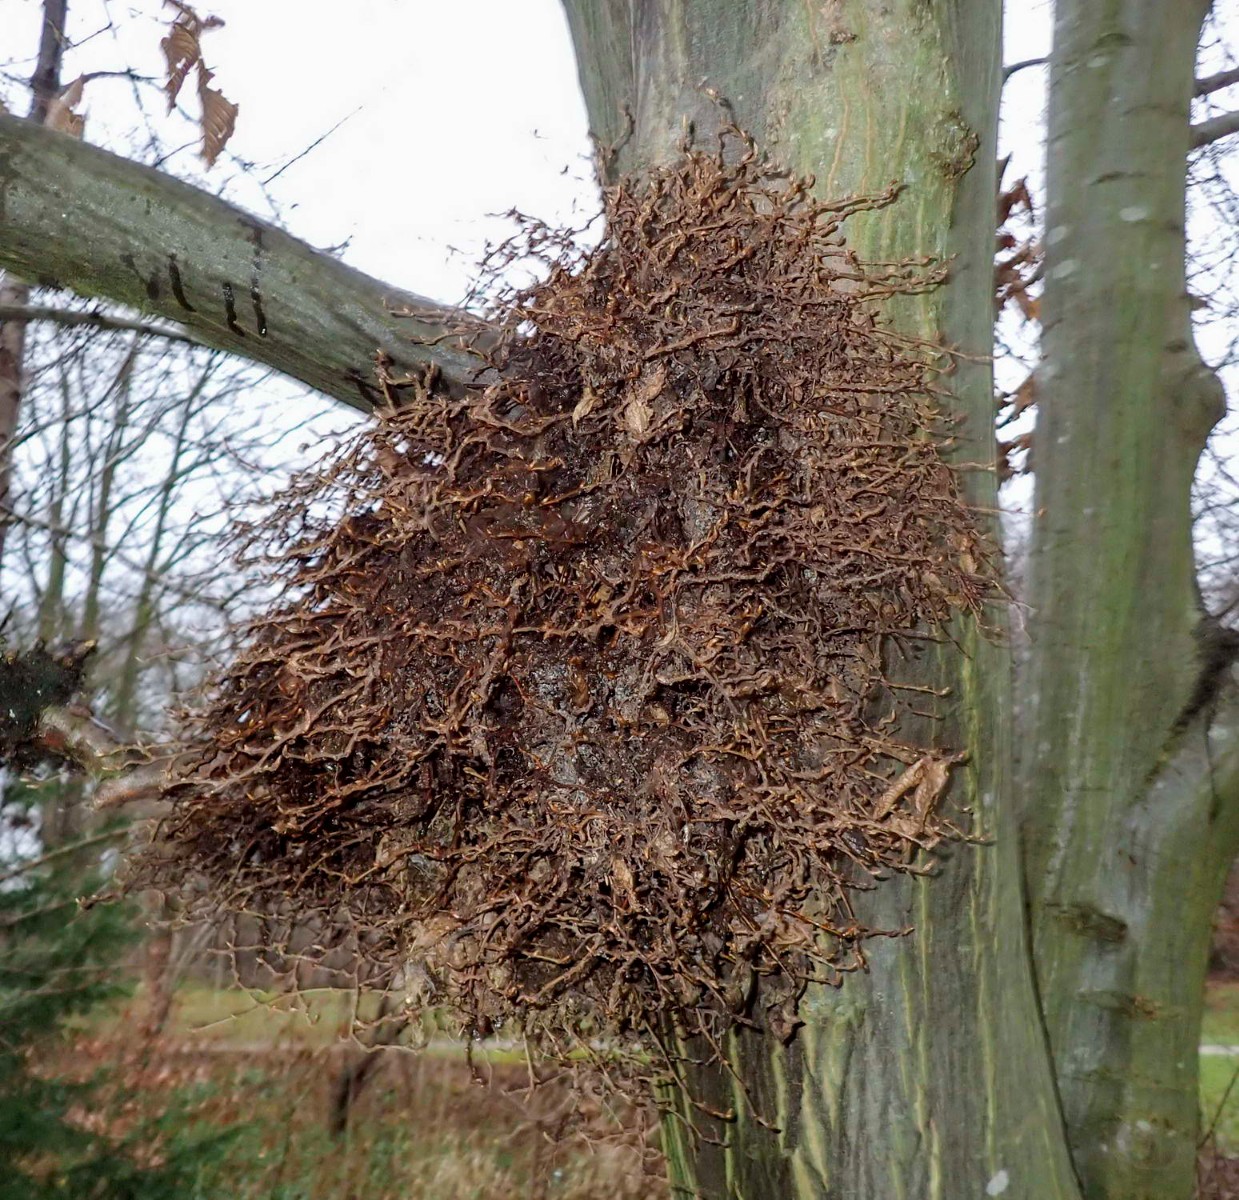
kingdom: Fungi
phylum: Ascomycota
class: Taphrinomycetes
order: Taphrinales
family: Taphrinaceae
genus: Taphrina
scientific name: Taphrina carpini
